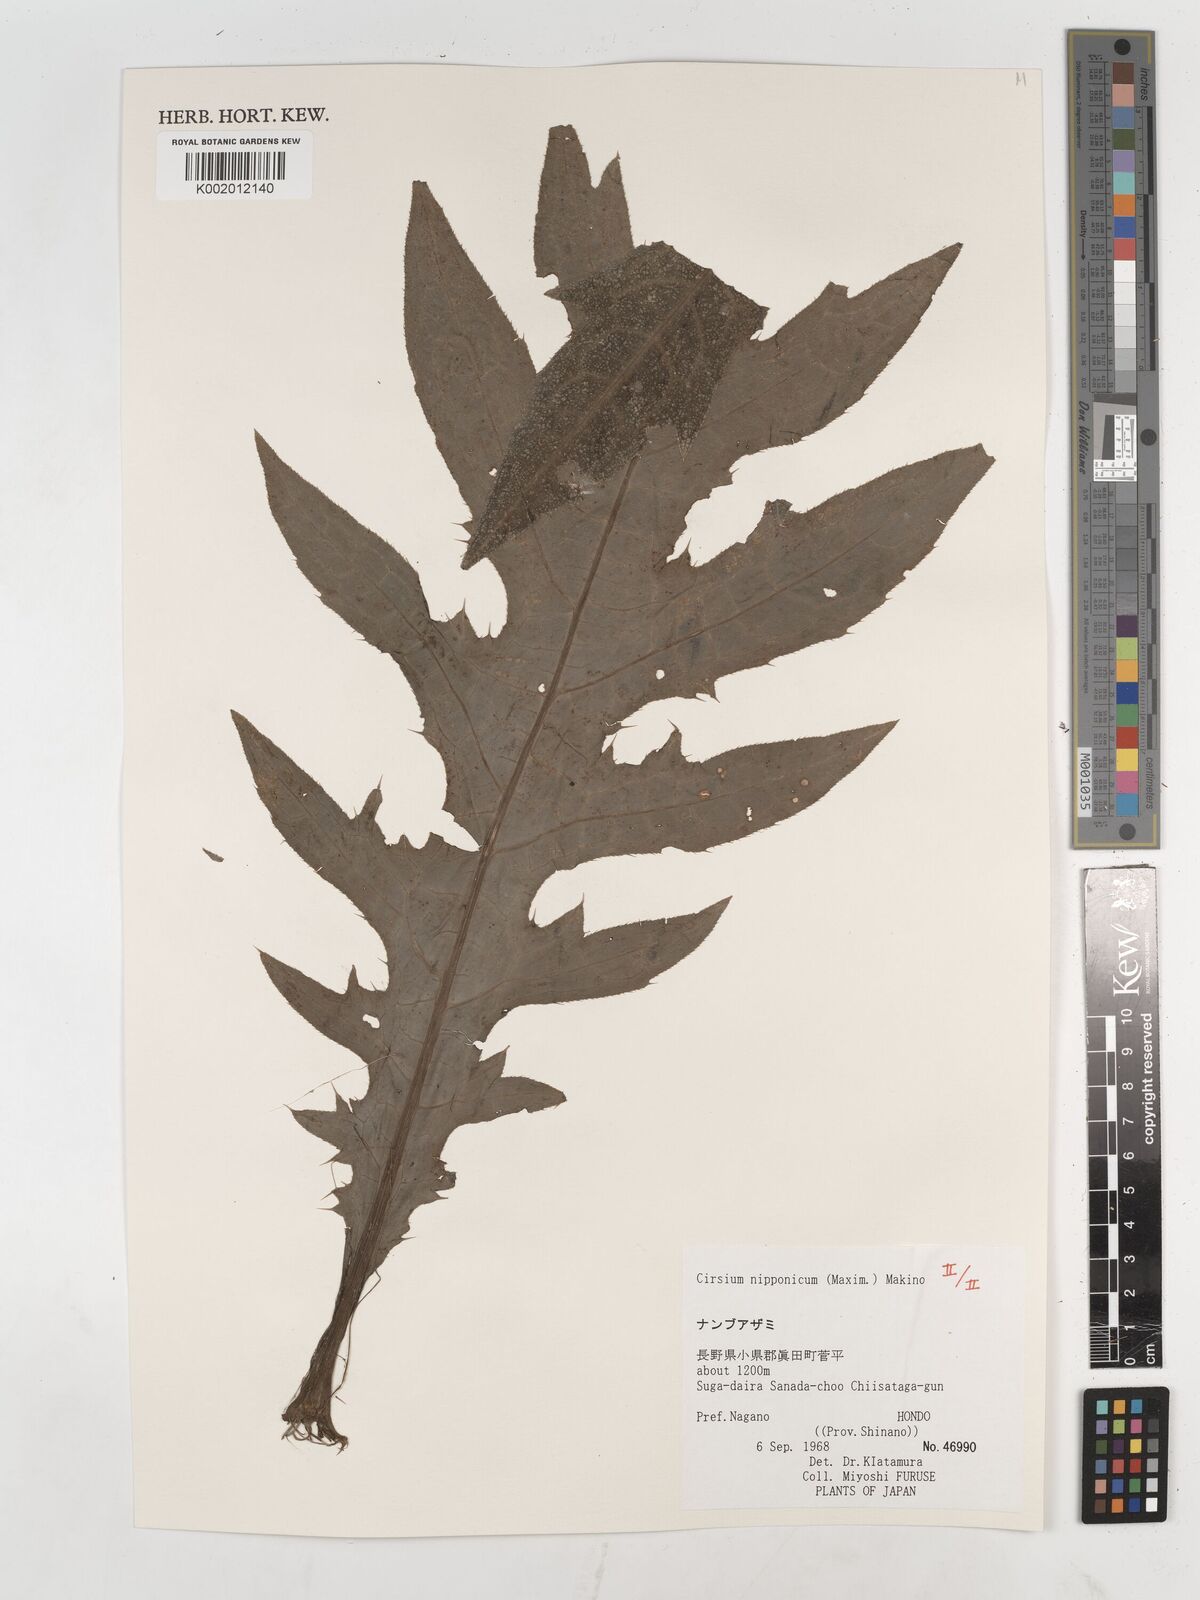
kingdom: Plantae
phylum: Tracheophyta
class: Magnoliopsida
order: Asterales
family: Asteraceae
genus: Cirsium
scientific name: Cirsium nipponicum
